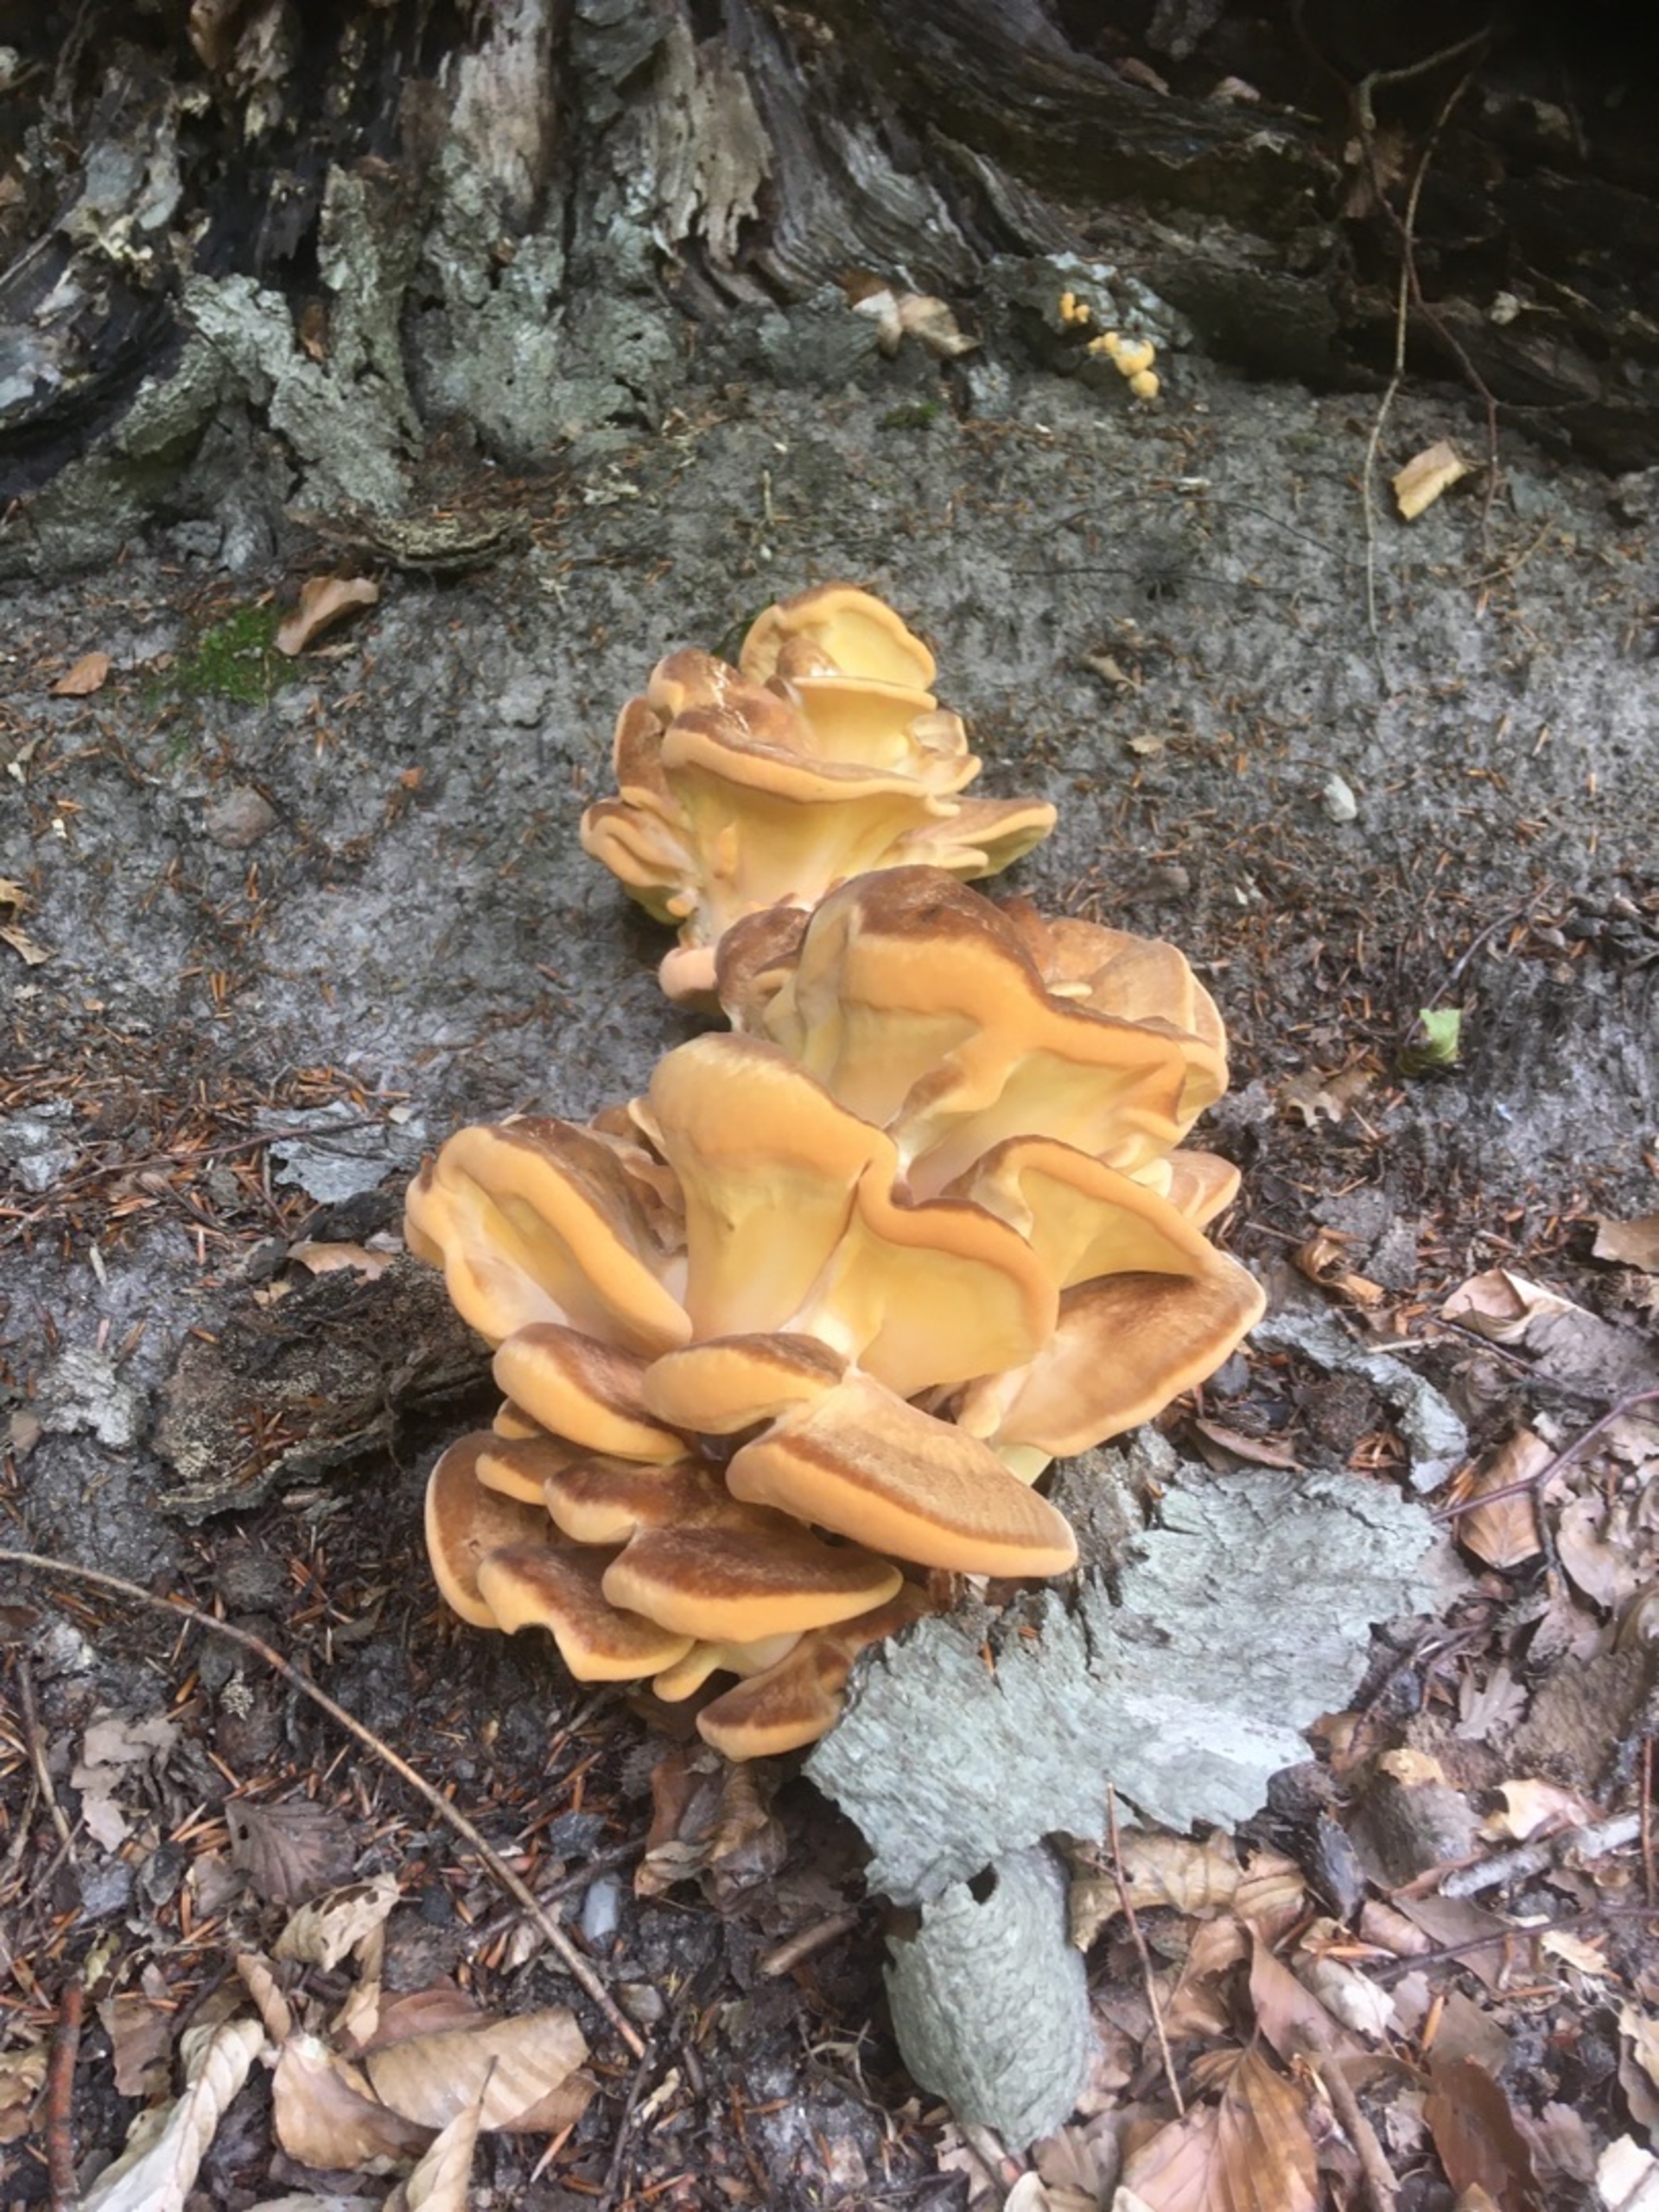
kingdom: Fungi
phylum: Basidiomycota
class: Agaricomycetes
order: Polyporales
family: Meripilaceae
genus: Meripilus
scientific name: Meripilus giganteus
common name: Kæmpeporesvamp
